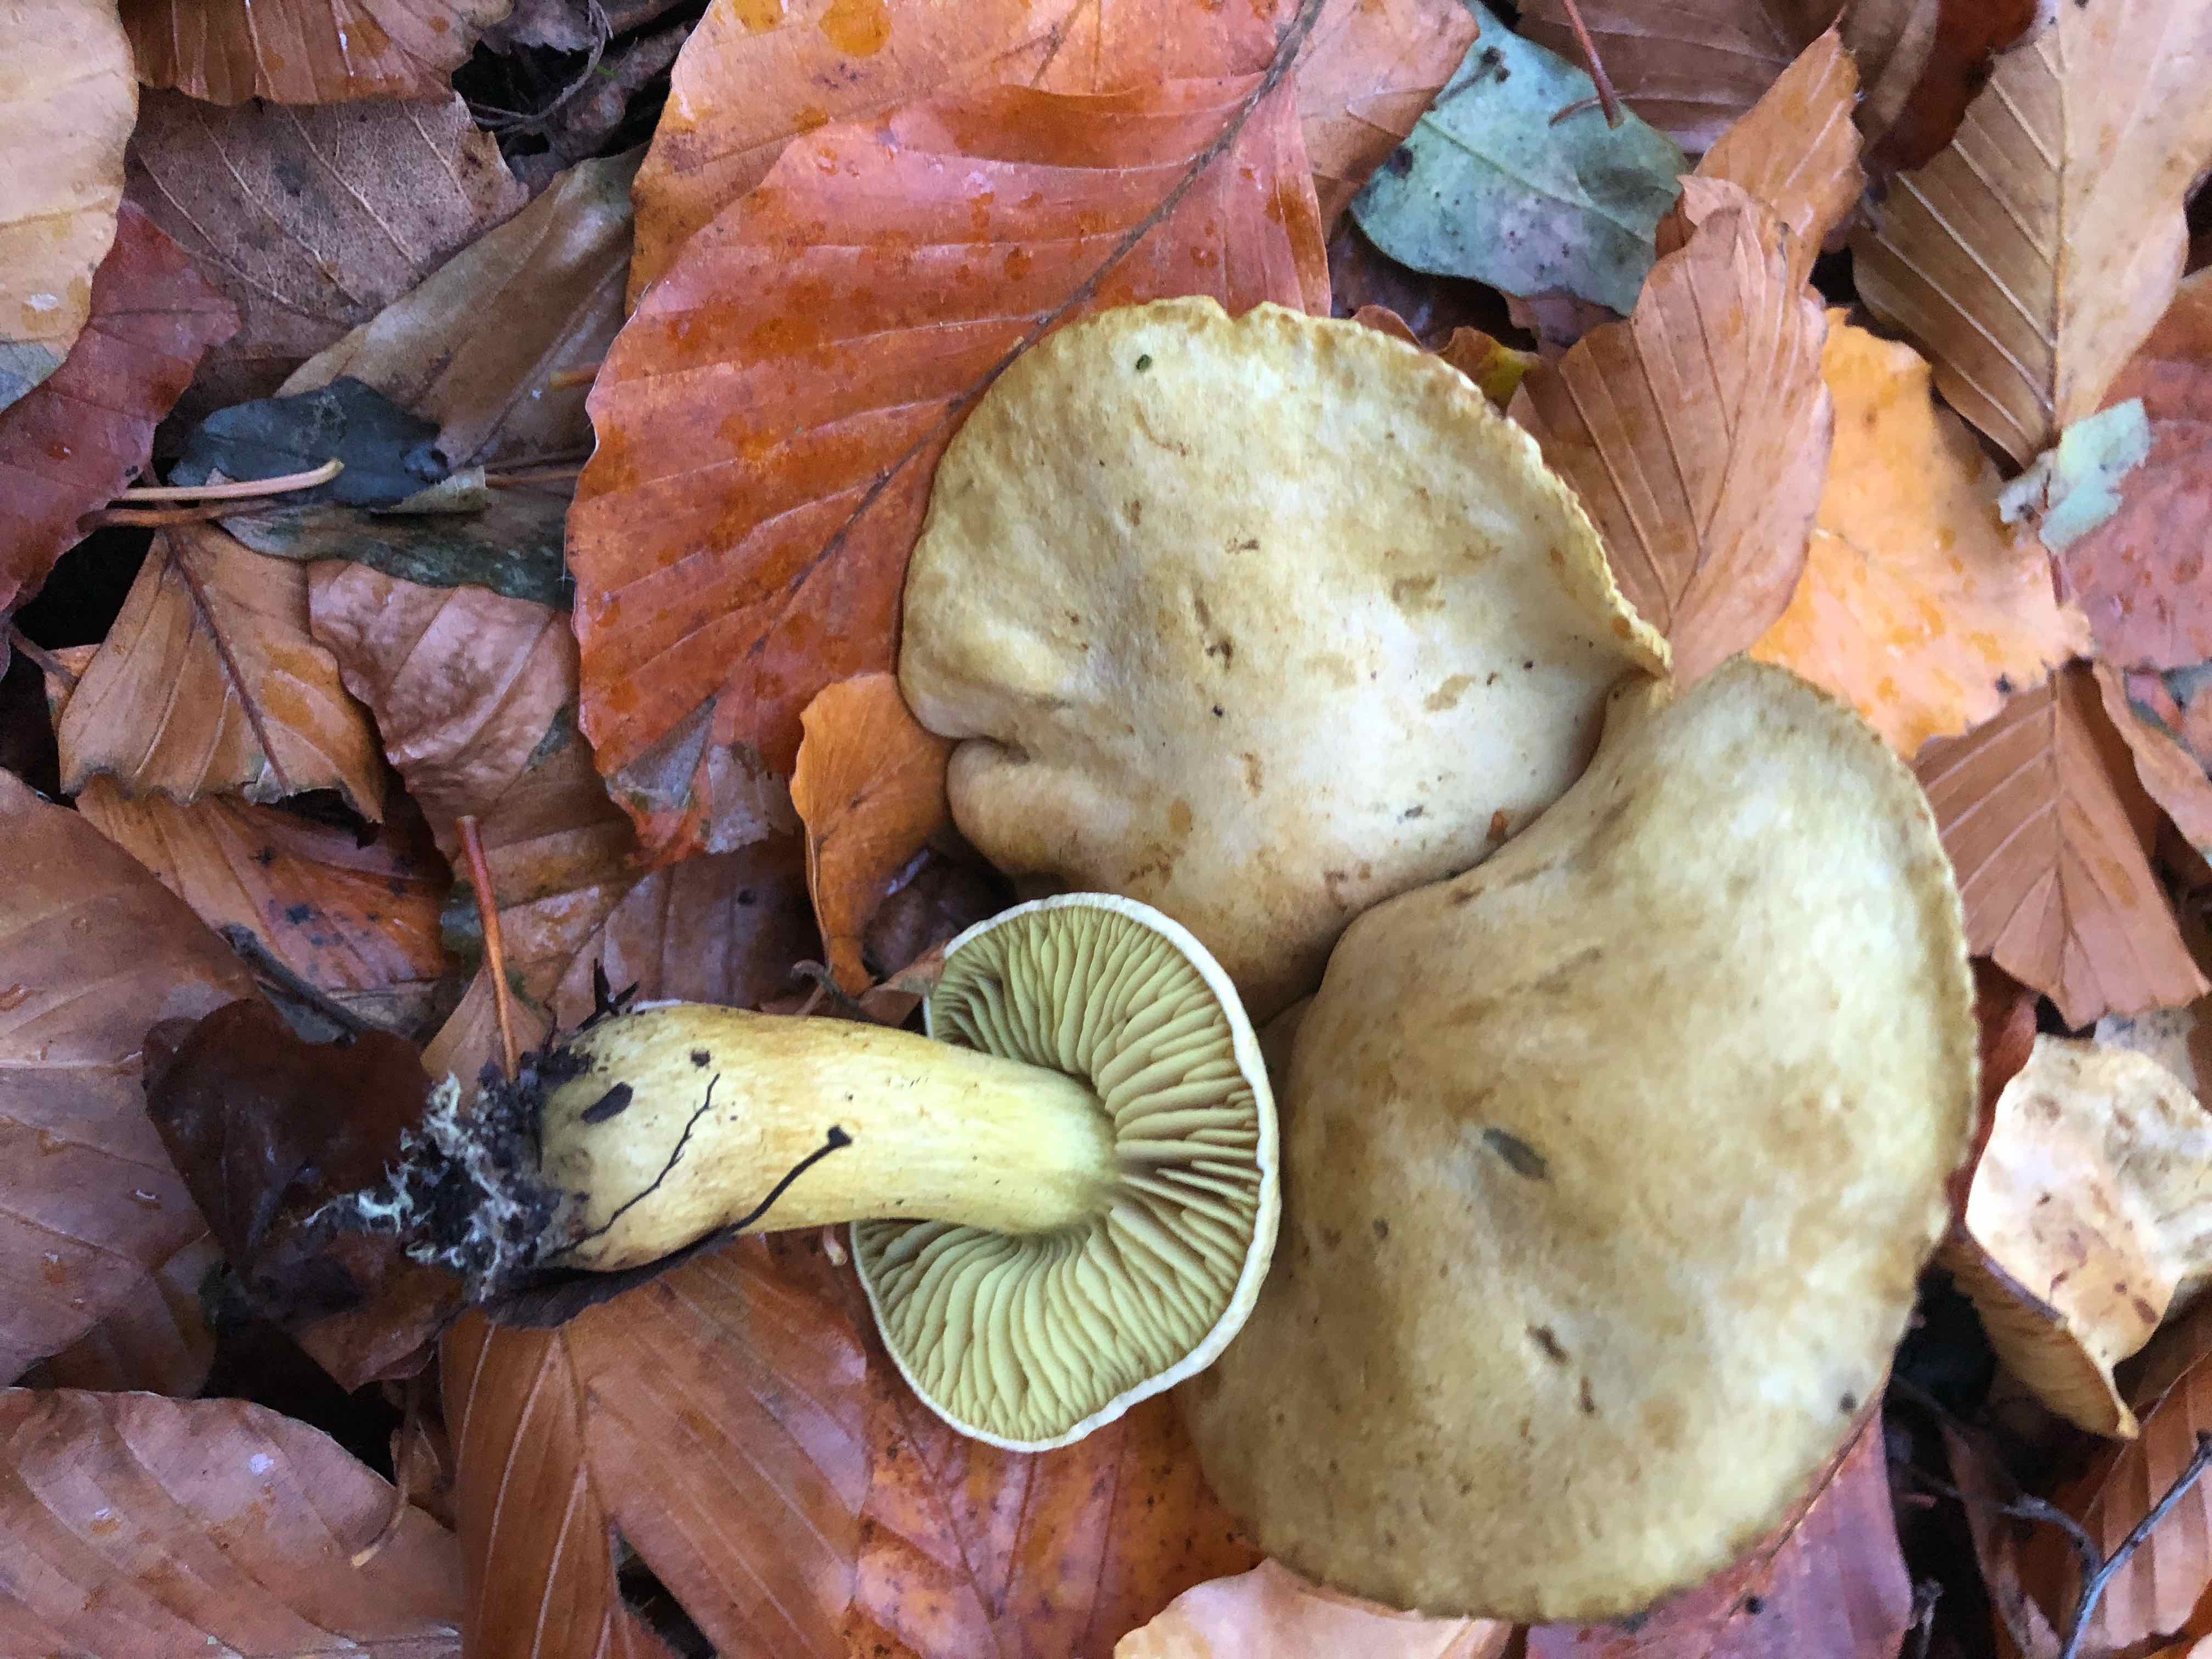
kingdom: Fungi
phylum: Basidiomycota
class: Agaricomycetes
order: Agaricales
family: Tricholomataceae
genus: Tricholoma
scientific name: Tricholoma sulphureum
